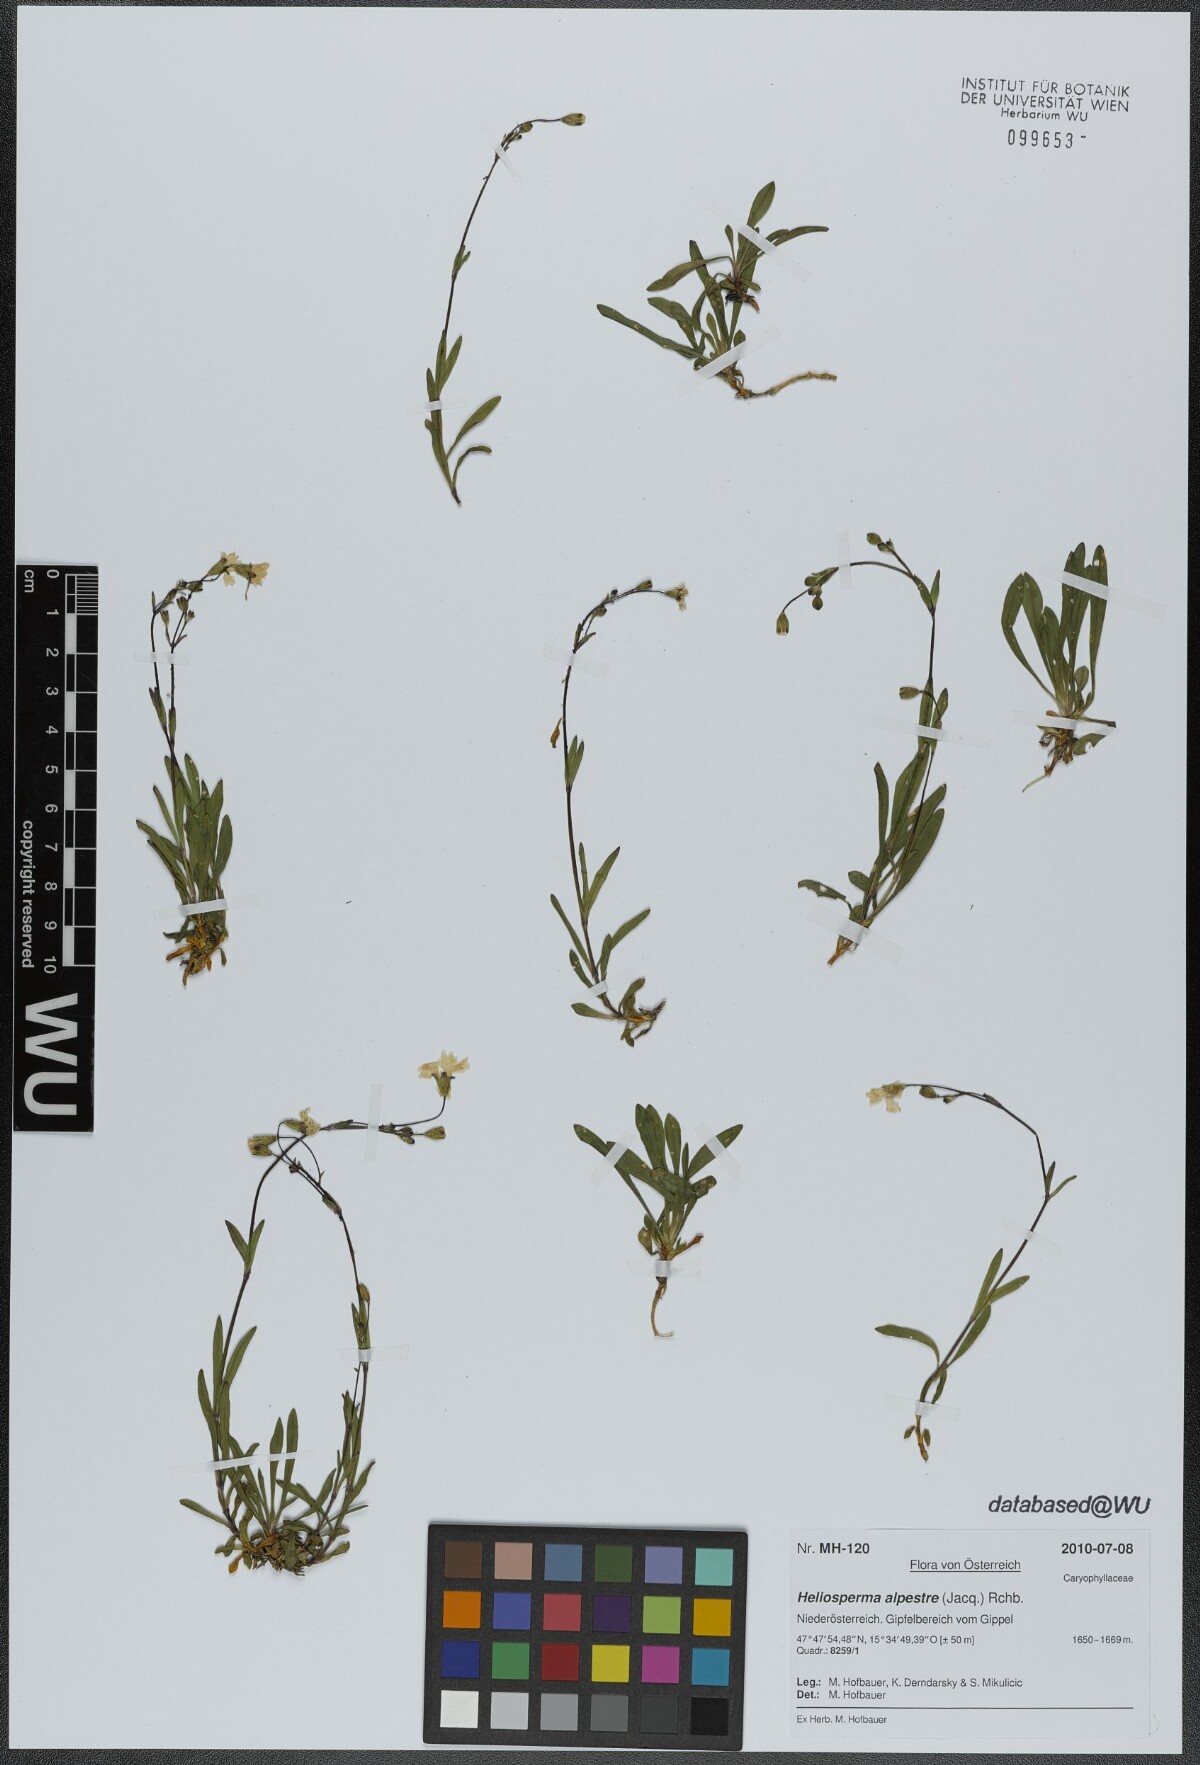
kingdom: Plantae
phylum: Tracheophyta
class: Magnoliopsida
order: Caryophyllales
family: Caryophyllaceae
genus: Heliosperma
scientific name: Heliosperma alpestre
